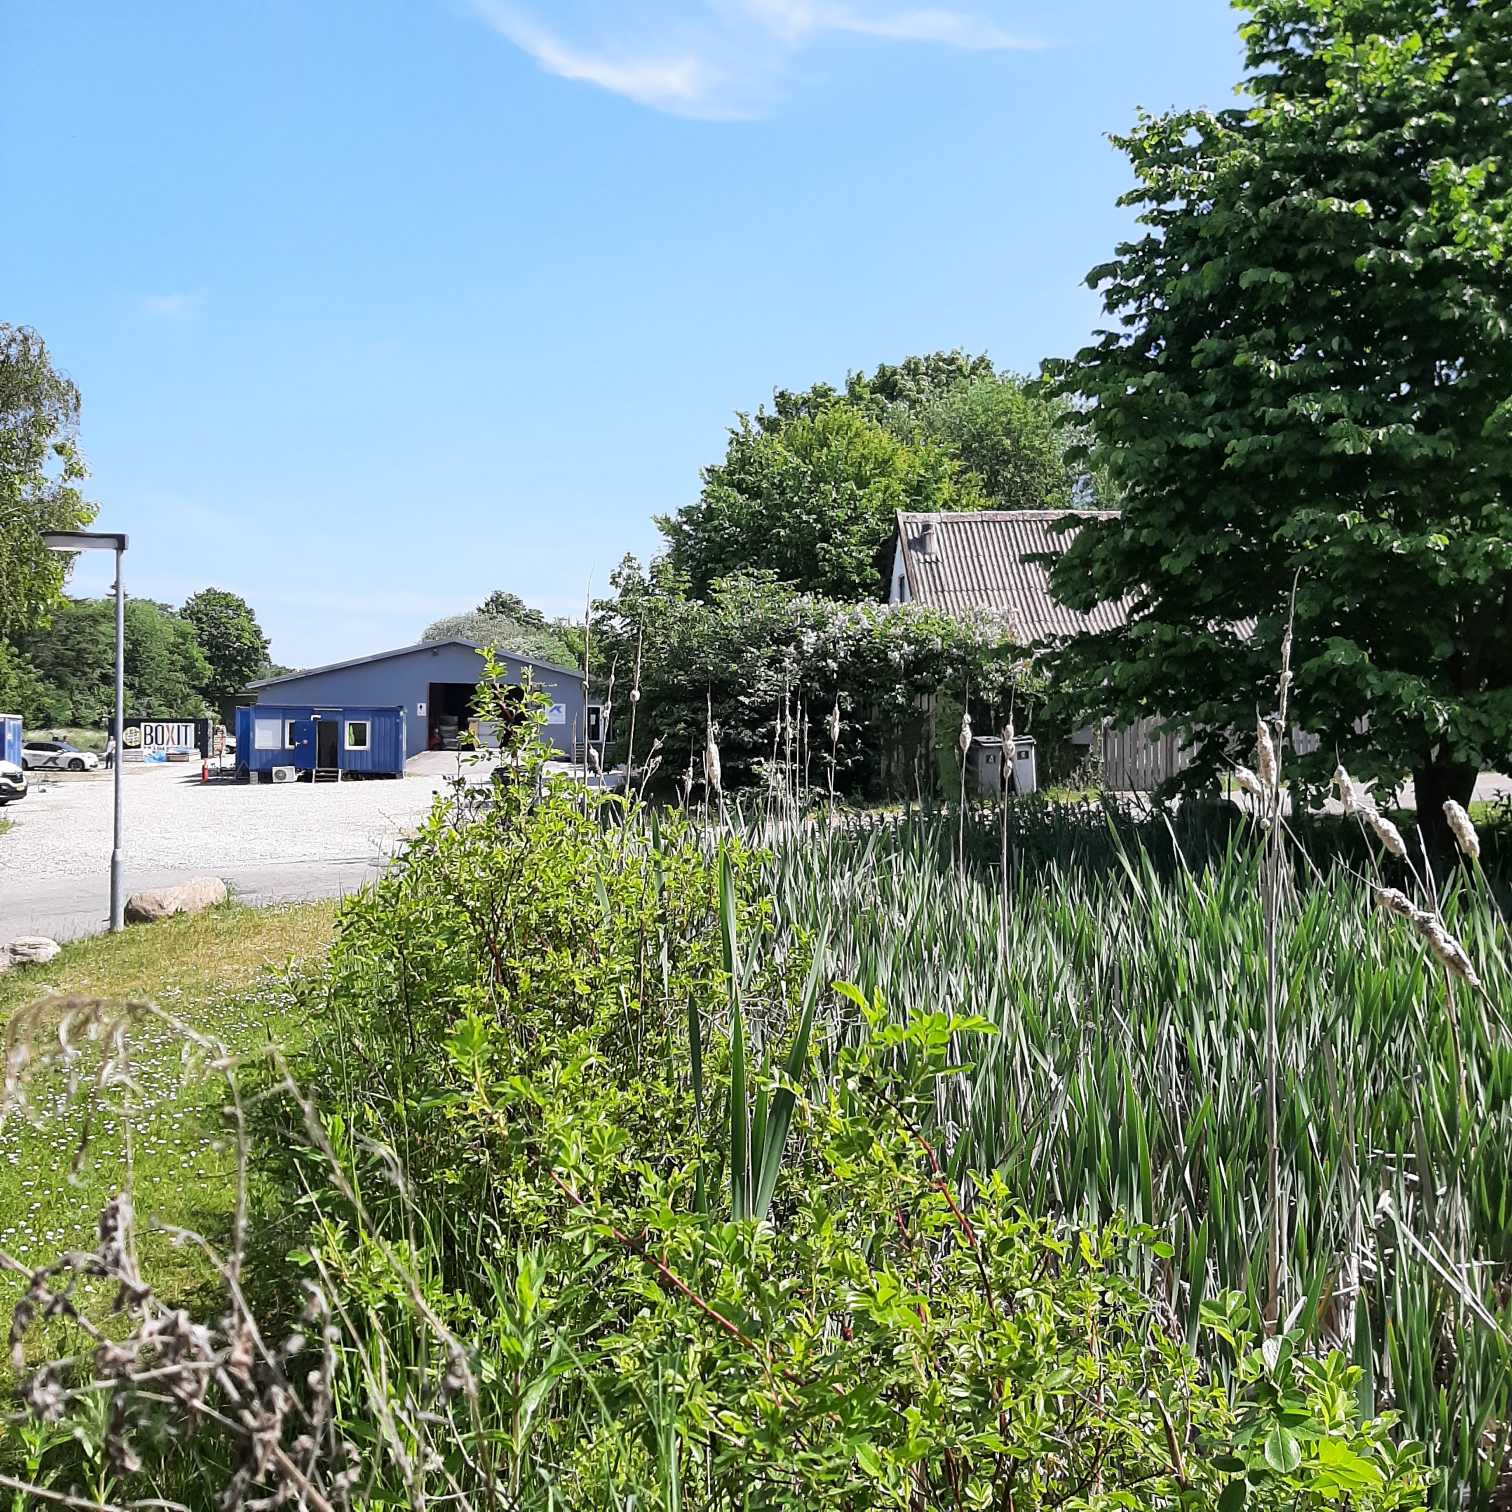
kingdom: Animalia
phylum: Chordata
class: Squamata
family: Colubridae
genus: Natrix
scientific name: Natrix natrix
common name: Snog
